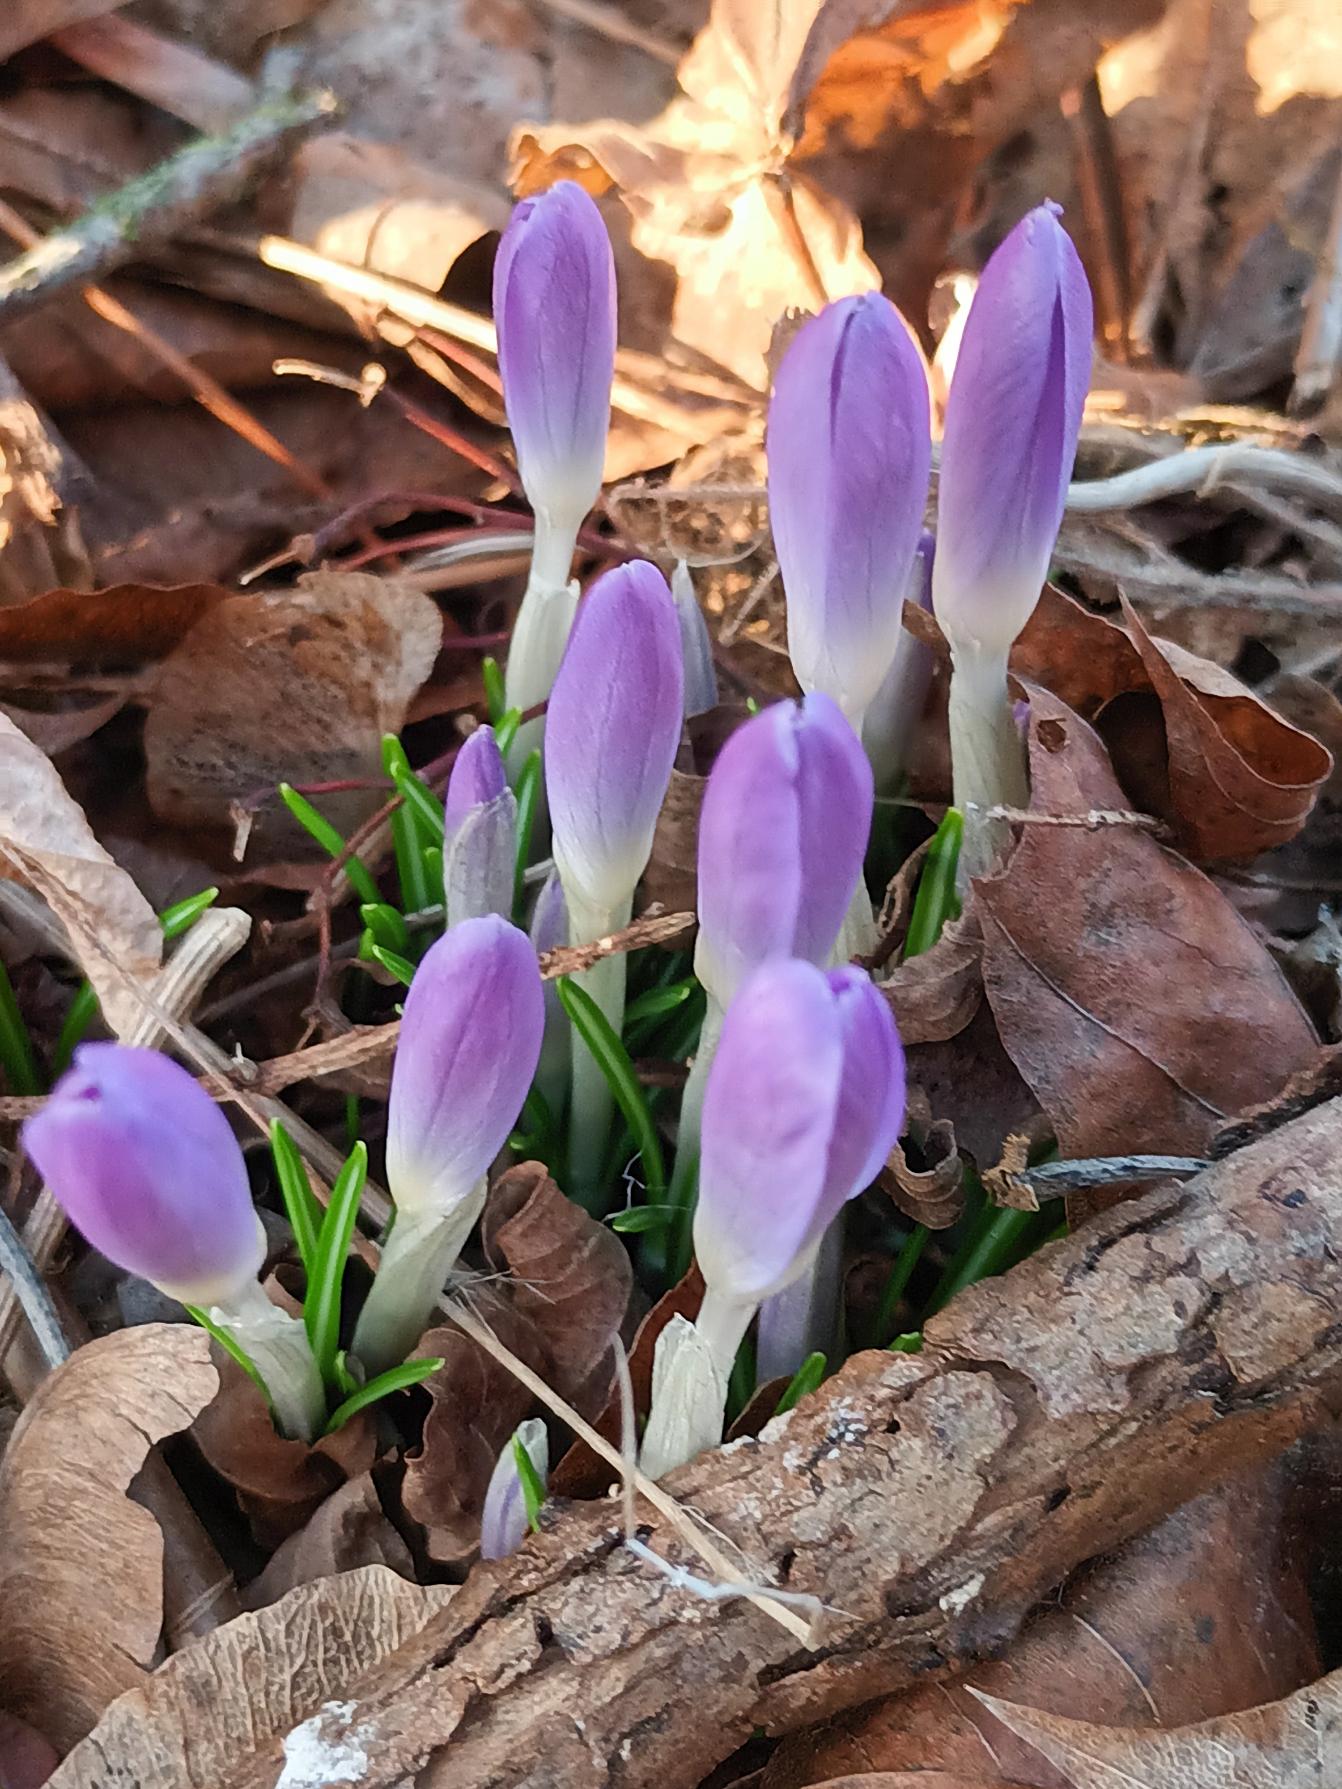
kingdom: Plantae
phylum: Tracheophyta
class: Liliopsida
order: Asparagales
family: Iridaceae
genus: Crocus
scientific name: Crocus tommasinianus
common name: Sne-krokus
